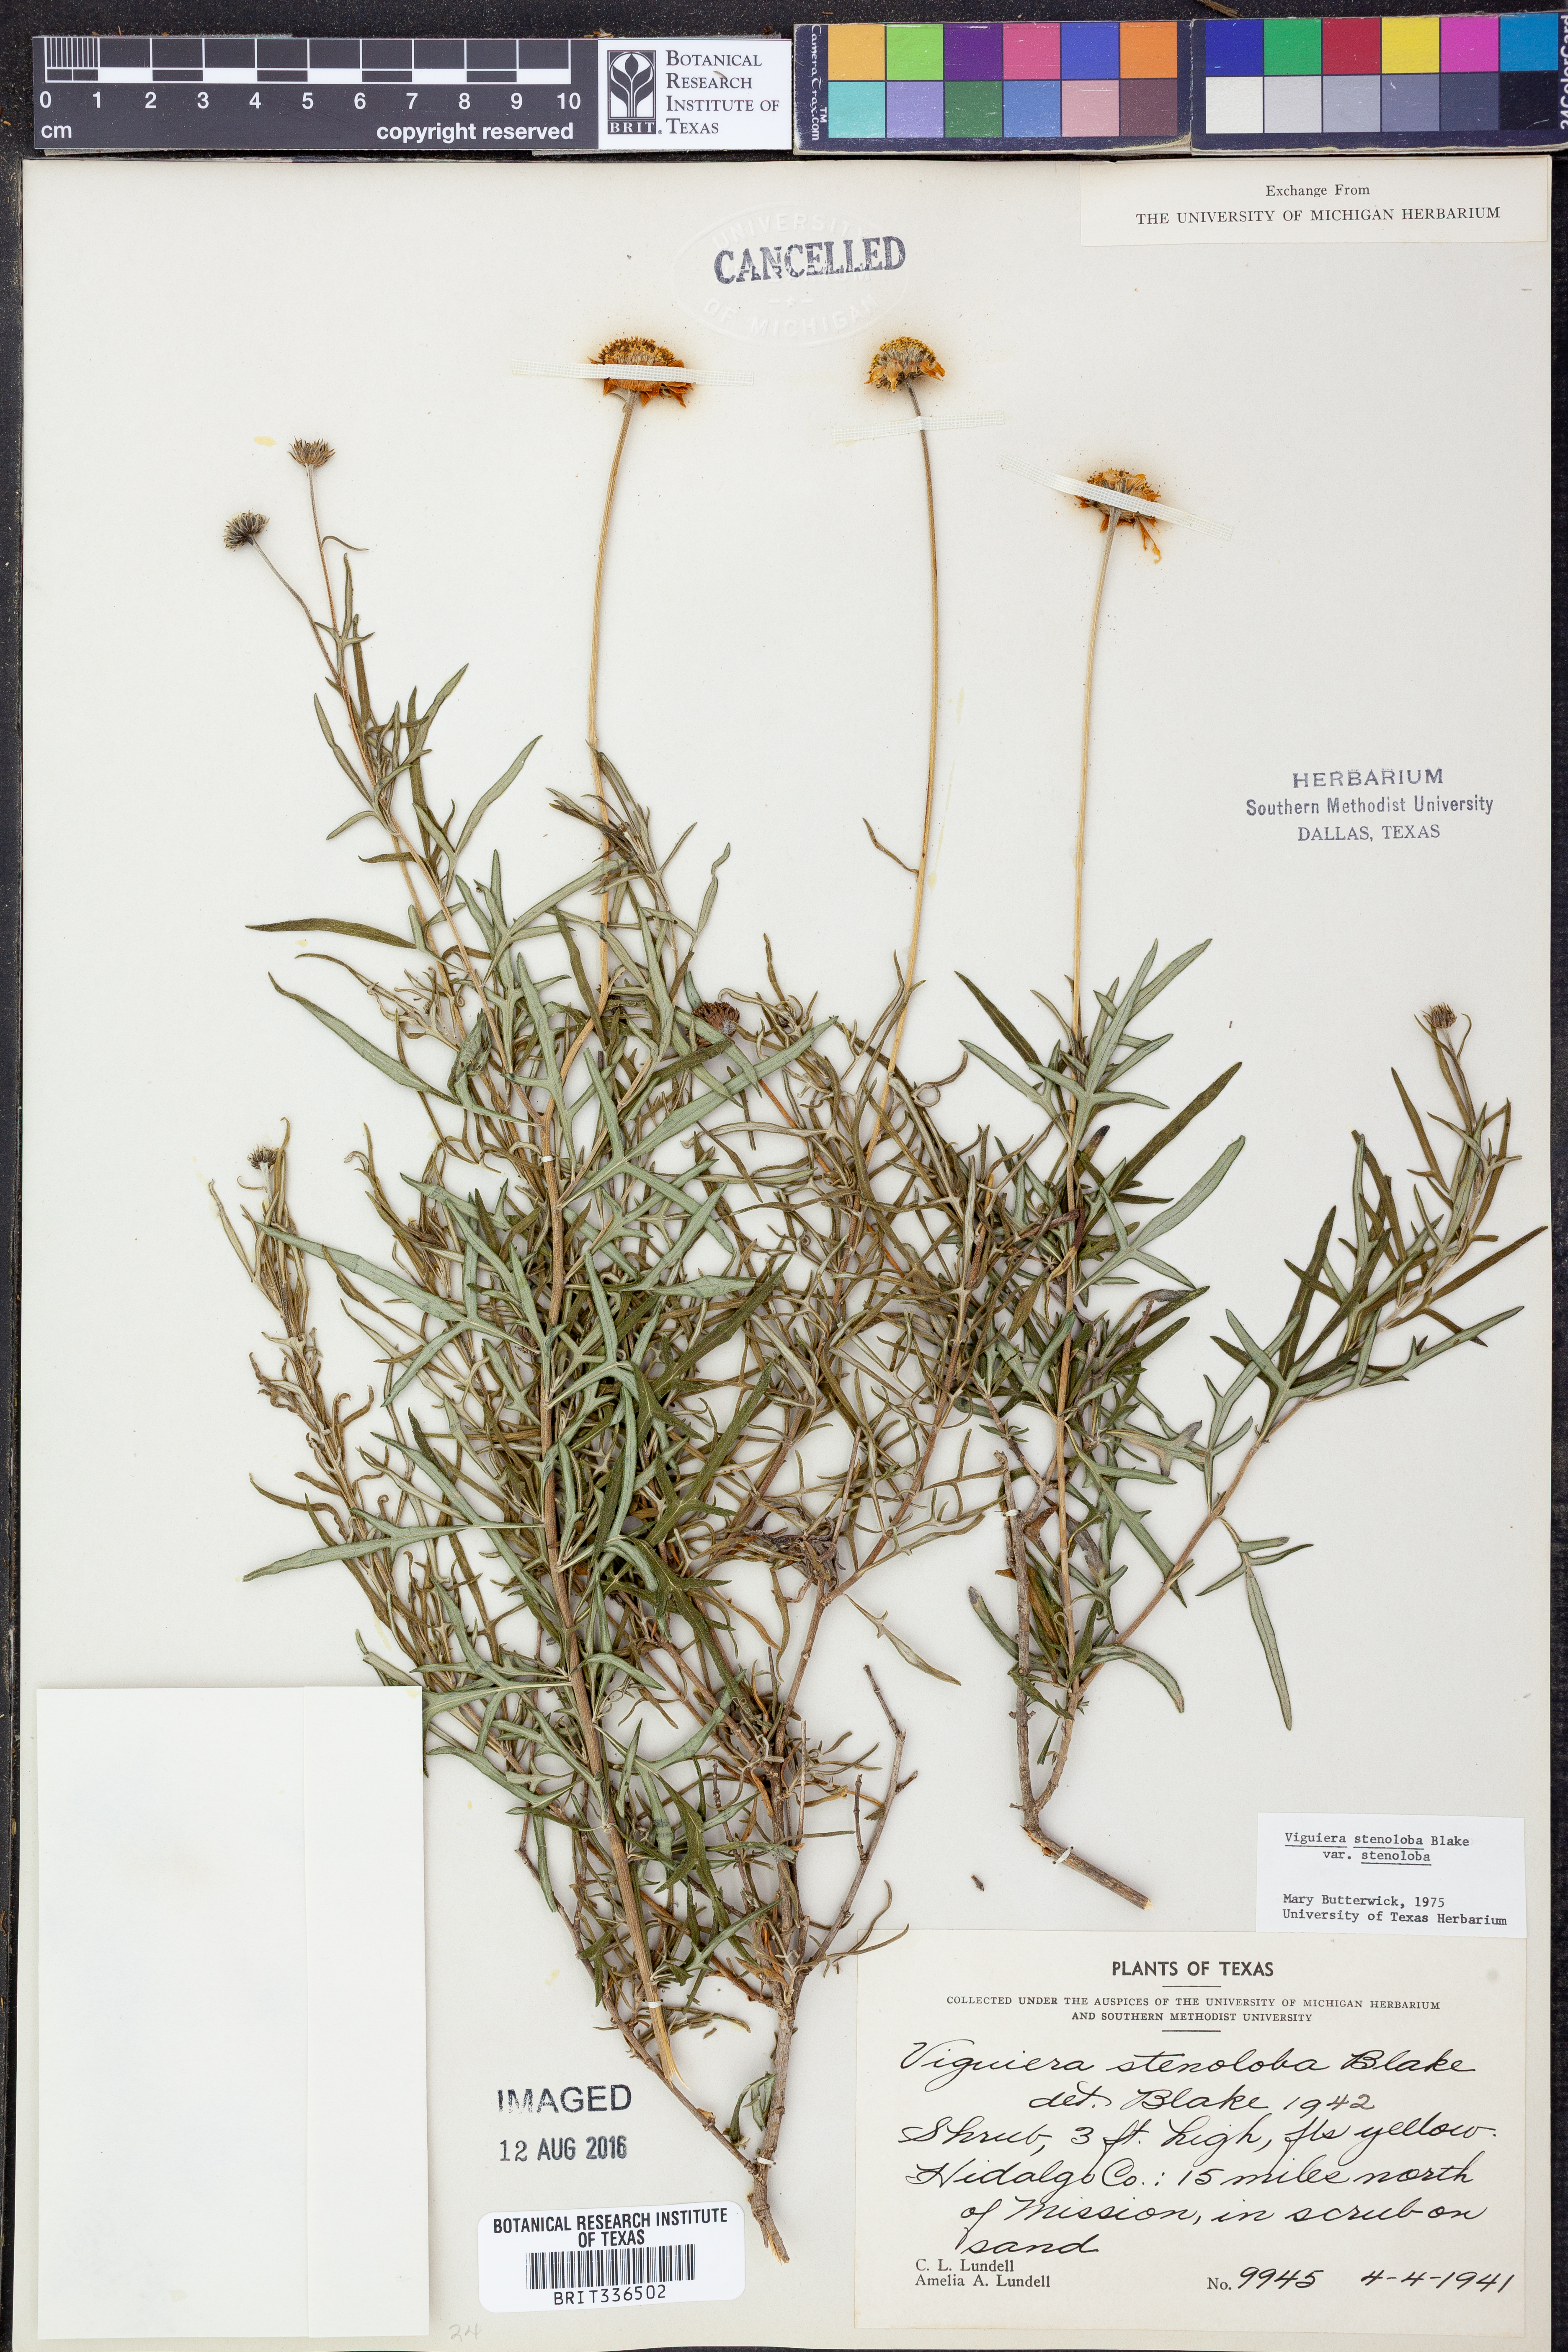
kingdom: Plantae
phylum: Tracheophyta
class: Magnoliopsida
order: Asterales
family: Asteraceae
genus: Sidneya
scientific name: Sidneya tenuifolia
